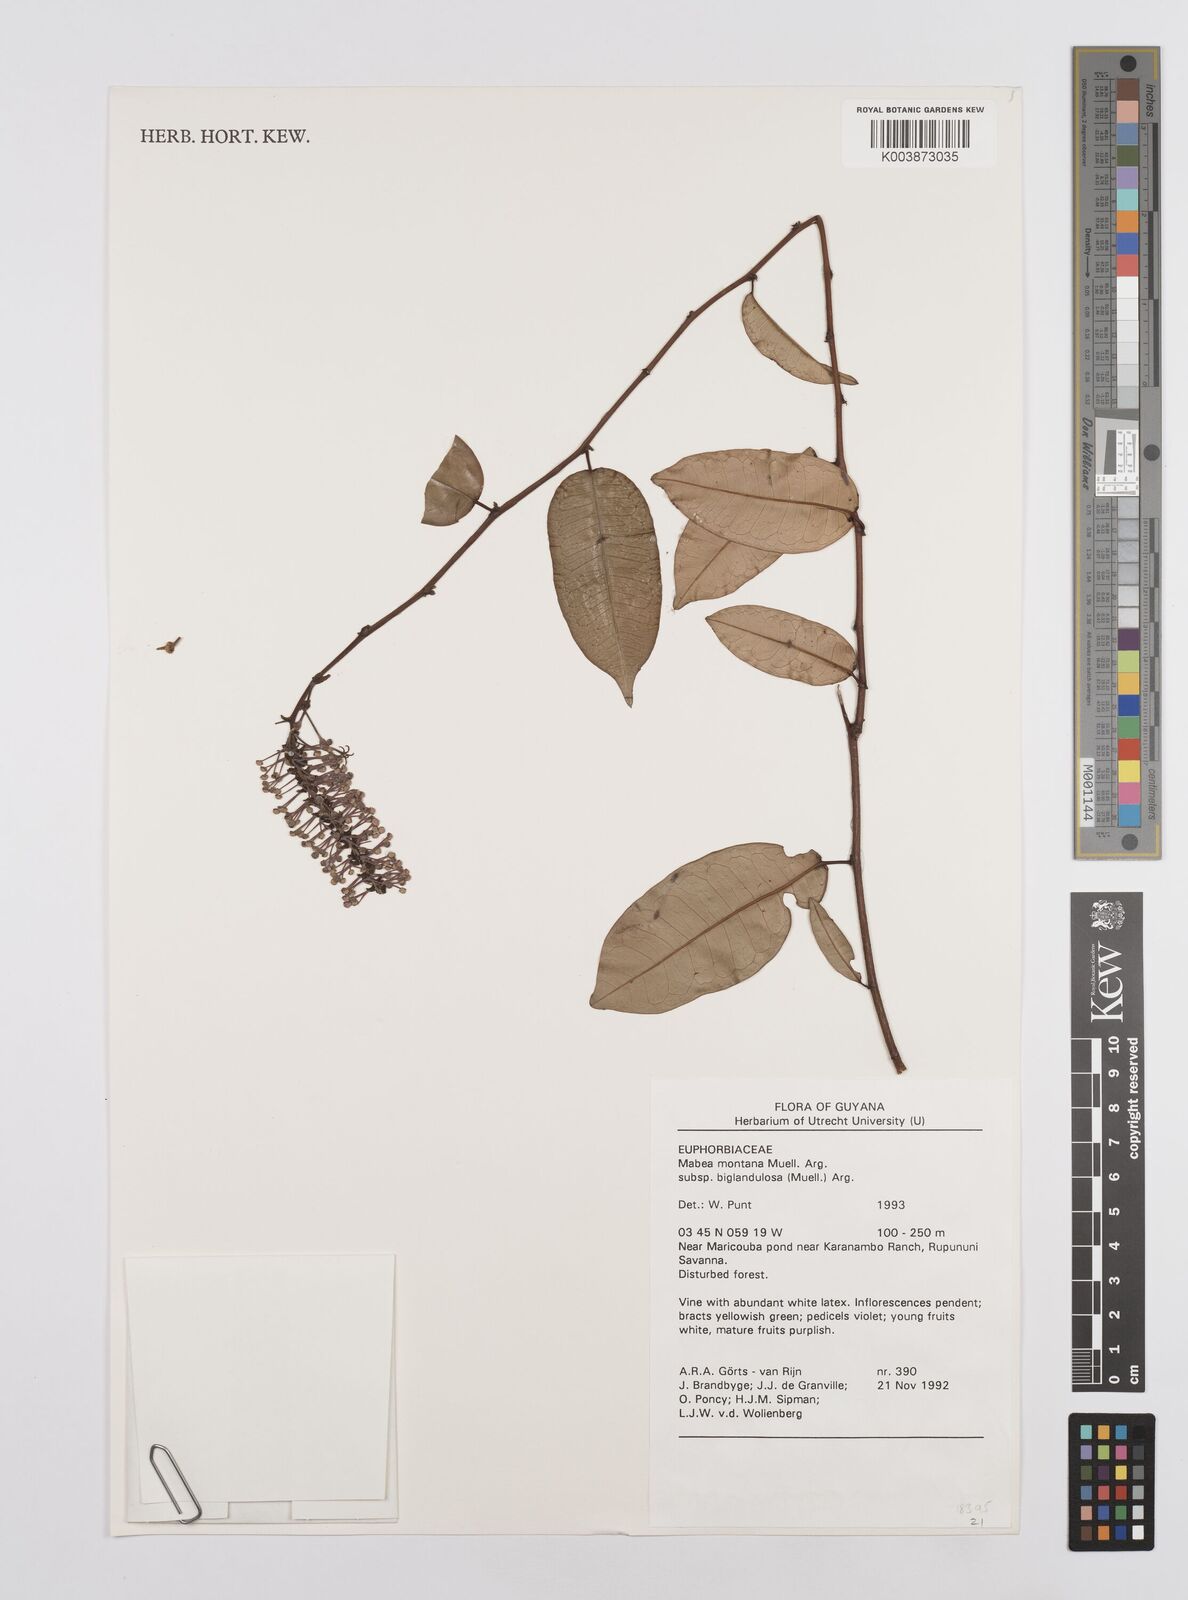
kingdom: Plantae
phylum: Tracheophyta
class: Magnoliopsida
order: Malpighiales
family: Euphorbiaceae
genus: Mabea
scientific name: Mabea montana
